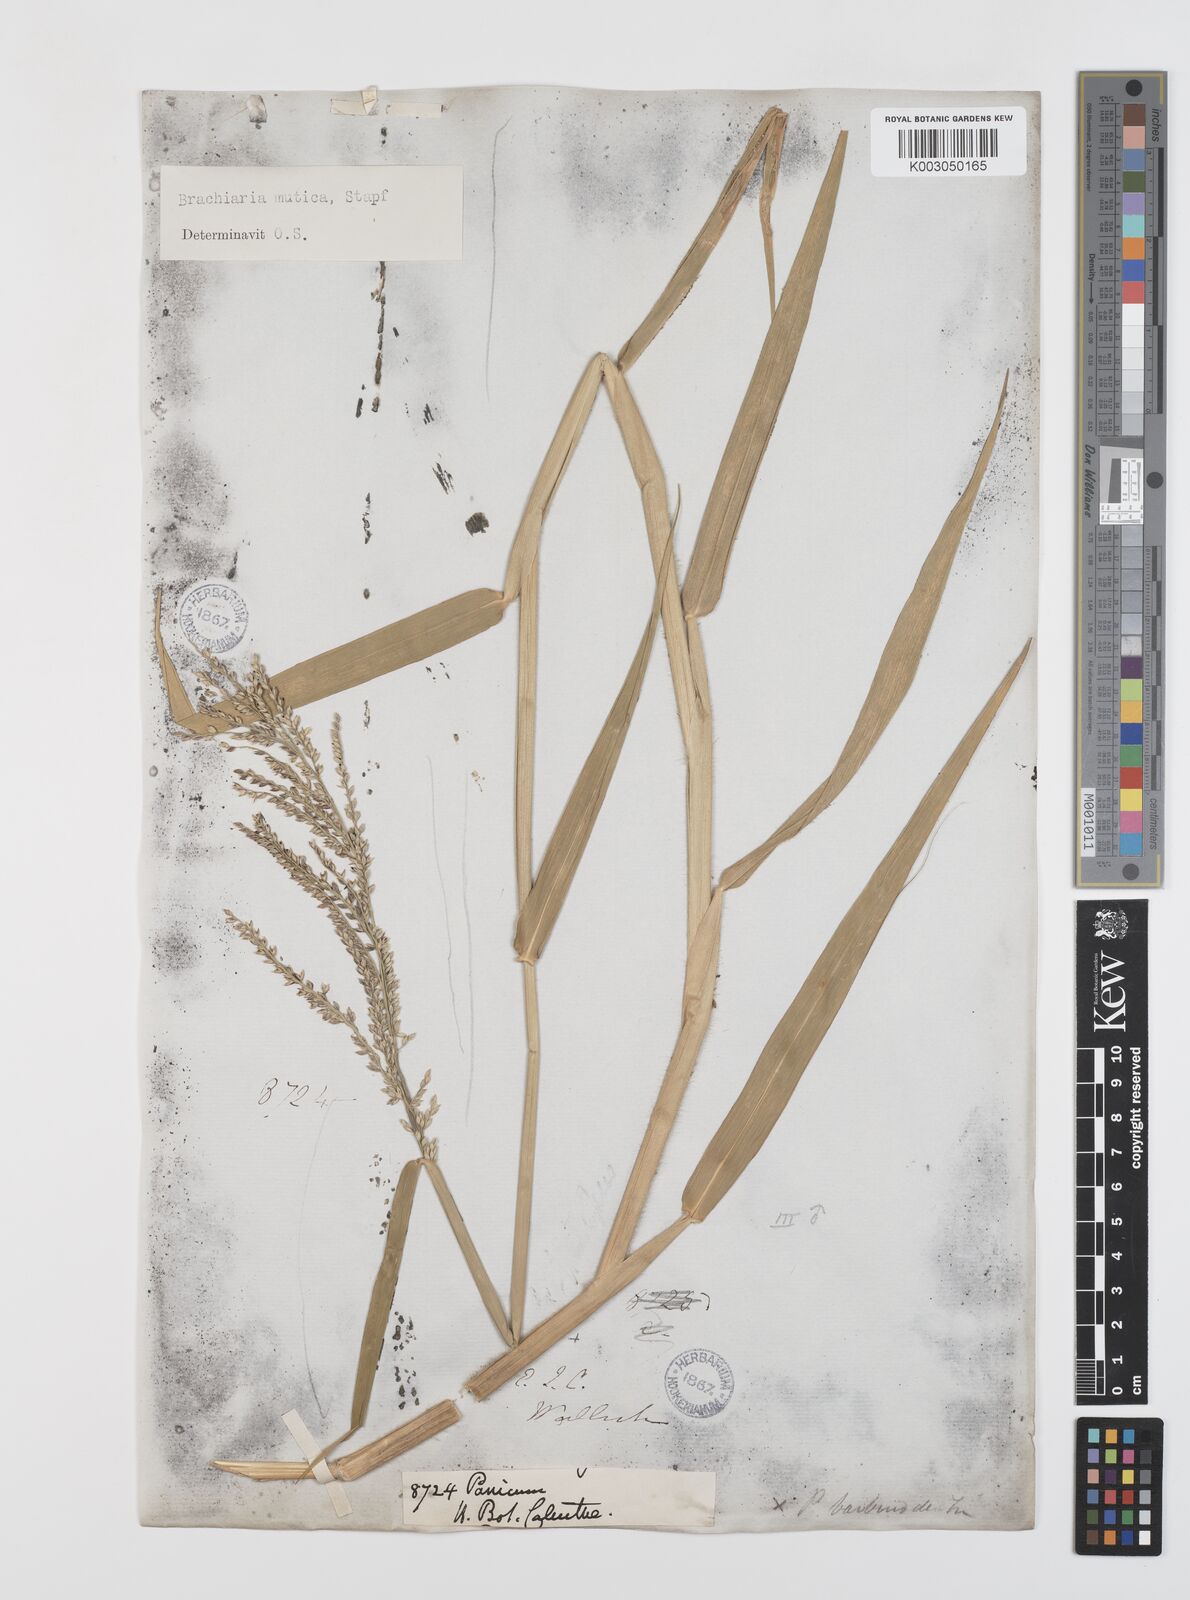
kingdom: Plantae
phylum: Tracheophyta
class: Liliopsida
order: Poales
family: Poaceae
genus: Urochloa
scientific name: Urochloa mutica
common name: Para grass
